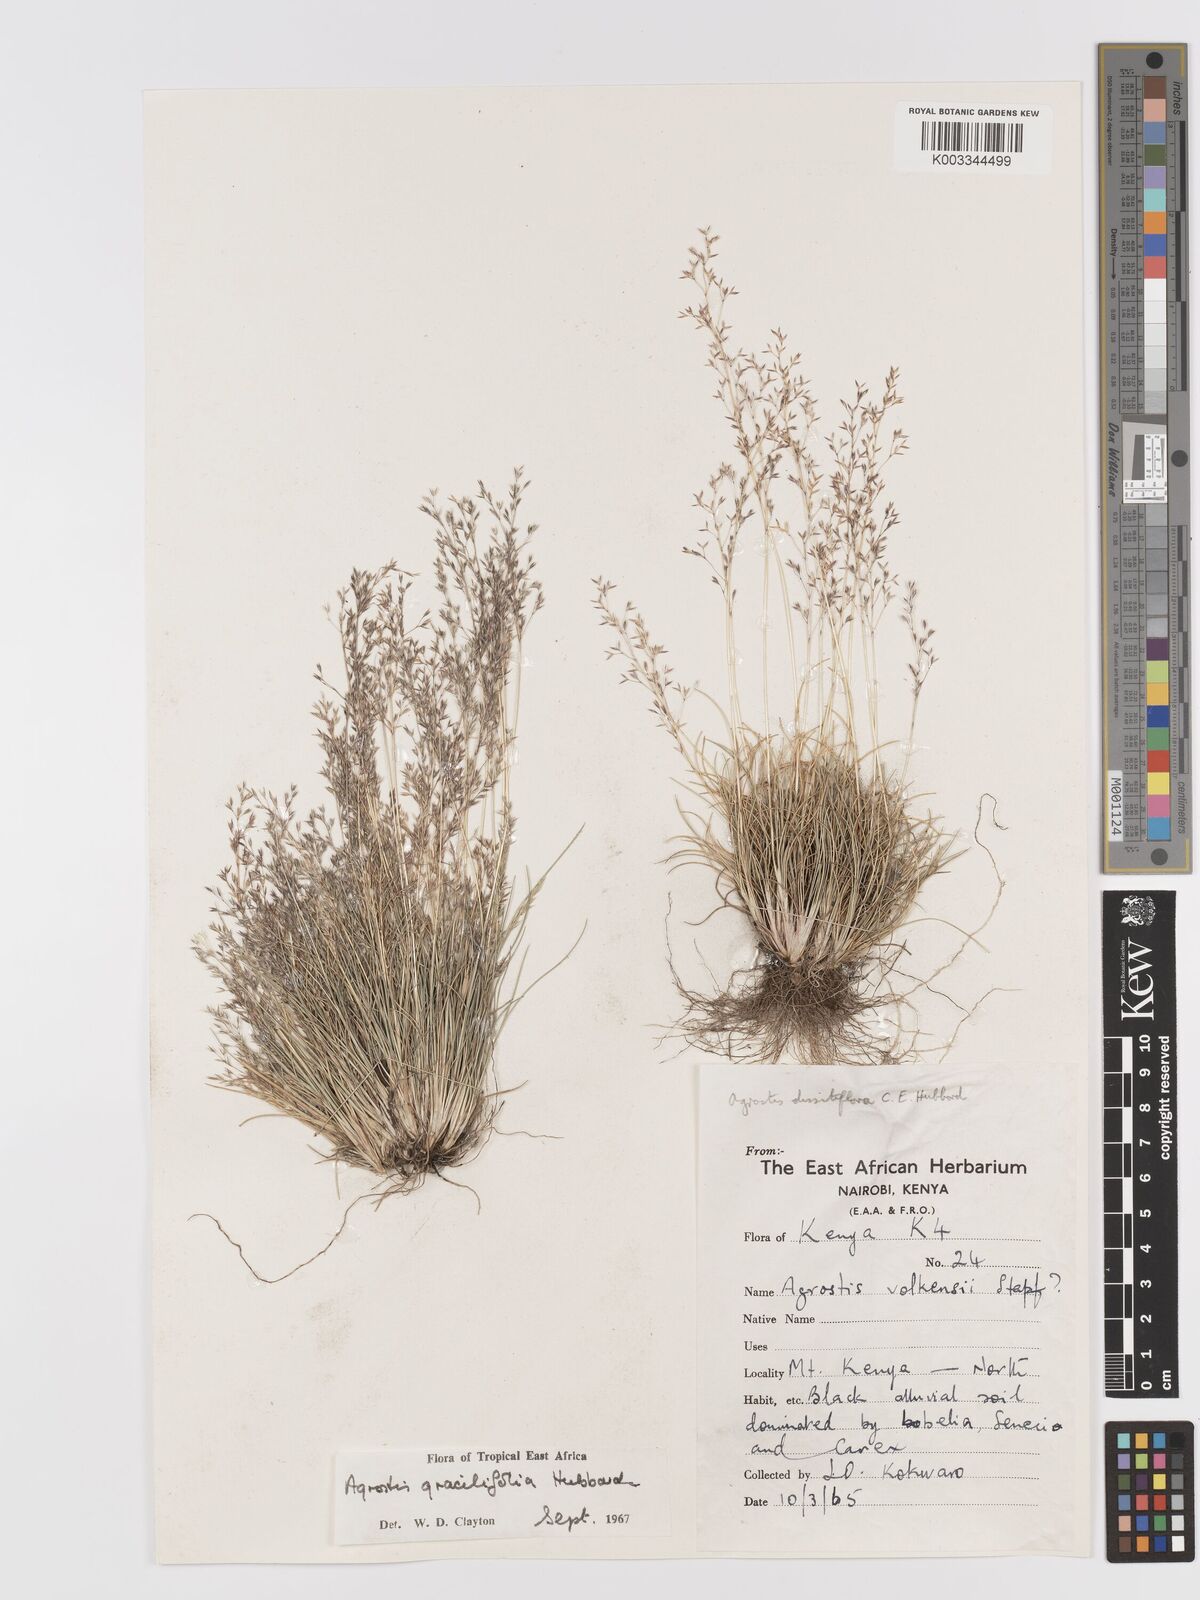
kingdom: Plantae
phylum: Tracheophyta
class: Liliopsida
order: Poales
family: Poaceae
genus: Agrostis
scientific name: Agrostis gracilifolia
